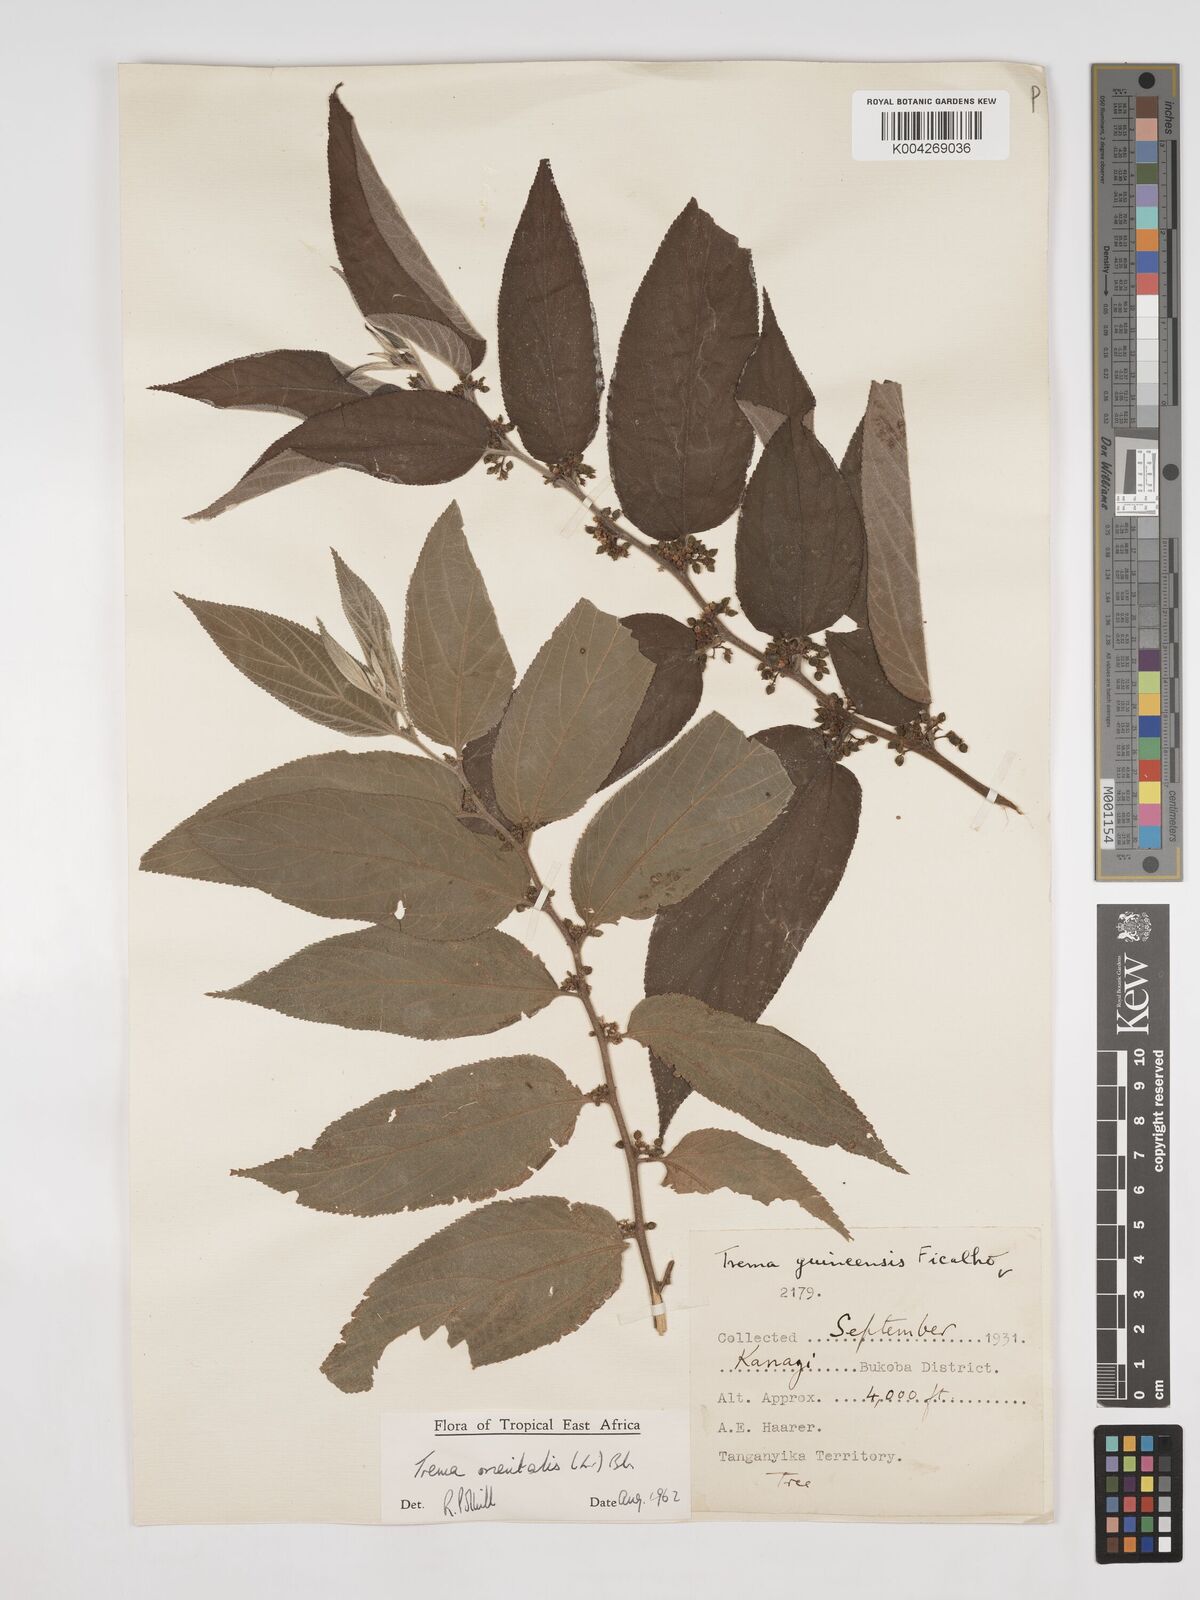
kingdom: Plantae
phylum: Tracheophyta
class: Magnoliopsida
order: Rosales
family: Cannabaceae
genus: Trema
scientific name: Trema orientale
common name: Indian charcoal tree
